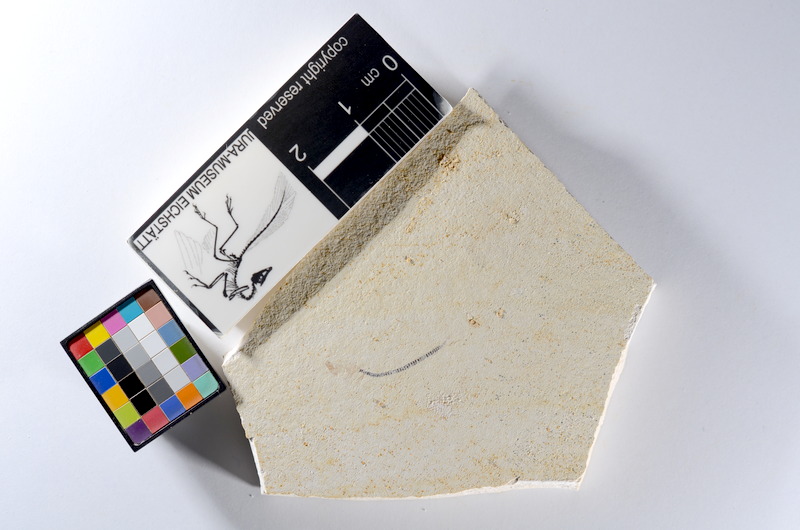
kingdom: Animalia
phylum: Chordata
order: Salmoniformes
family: Orthogonikleithridae
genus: Orthogonikleithrus
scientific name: Orthogonikleithrus hoelli
